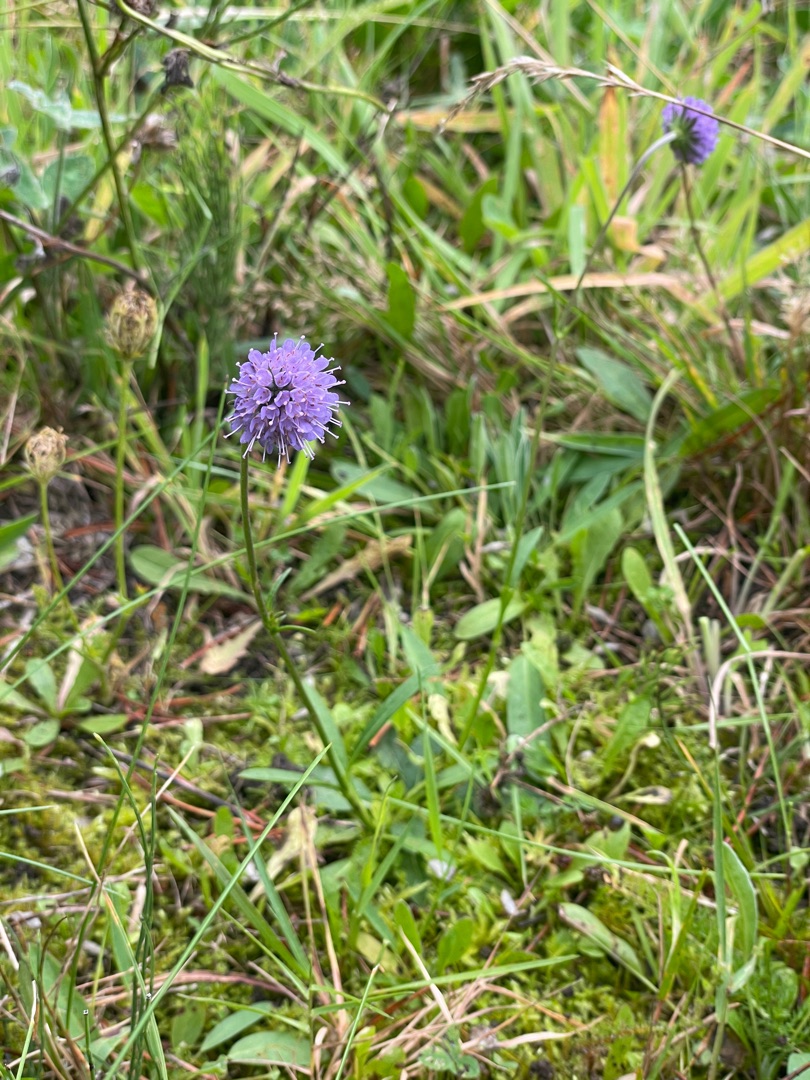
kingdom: Plantae
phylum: Tracheophyta
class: Magnoliopsida
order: Dipsacales
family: Caprifoliaceae
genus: Succisa
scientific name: Succisa pratensis
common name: Djævelsbid
